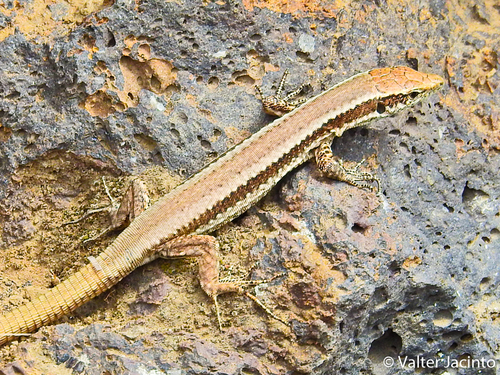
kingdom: Animalia
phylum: Chordata
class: Squamata
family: Lacertidae
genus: Teira
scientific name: Teira dugesii
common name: Madeira lizard
